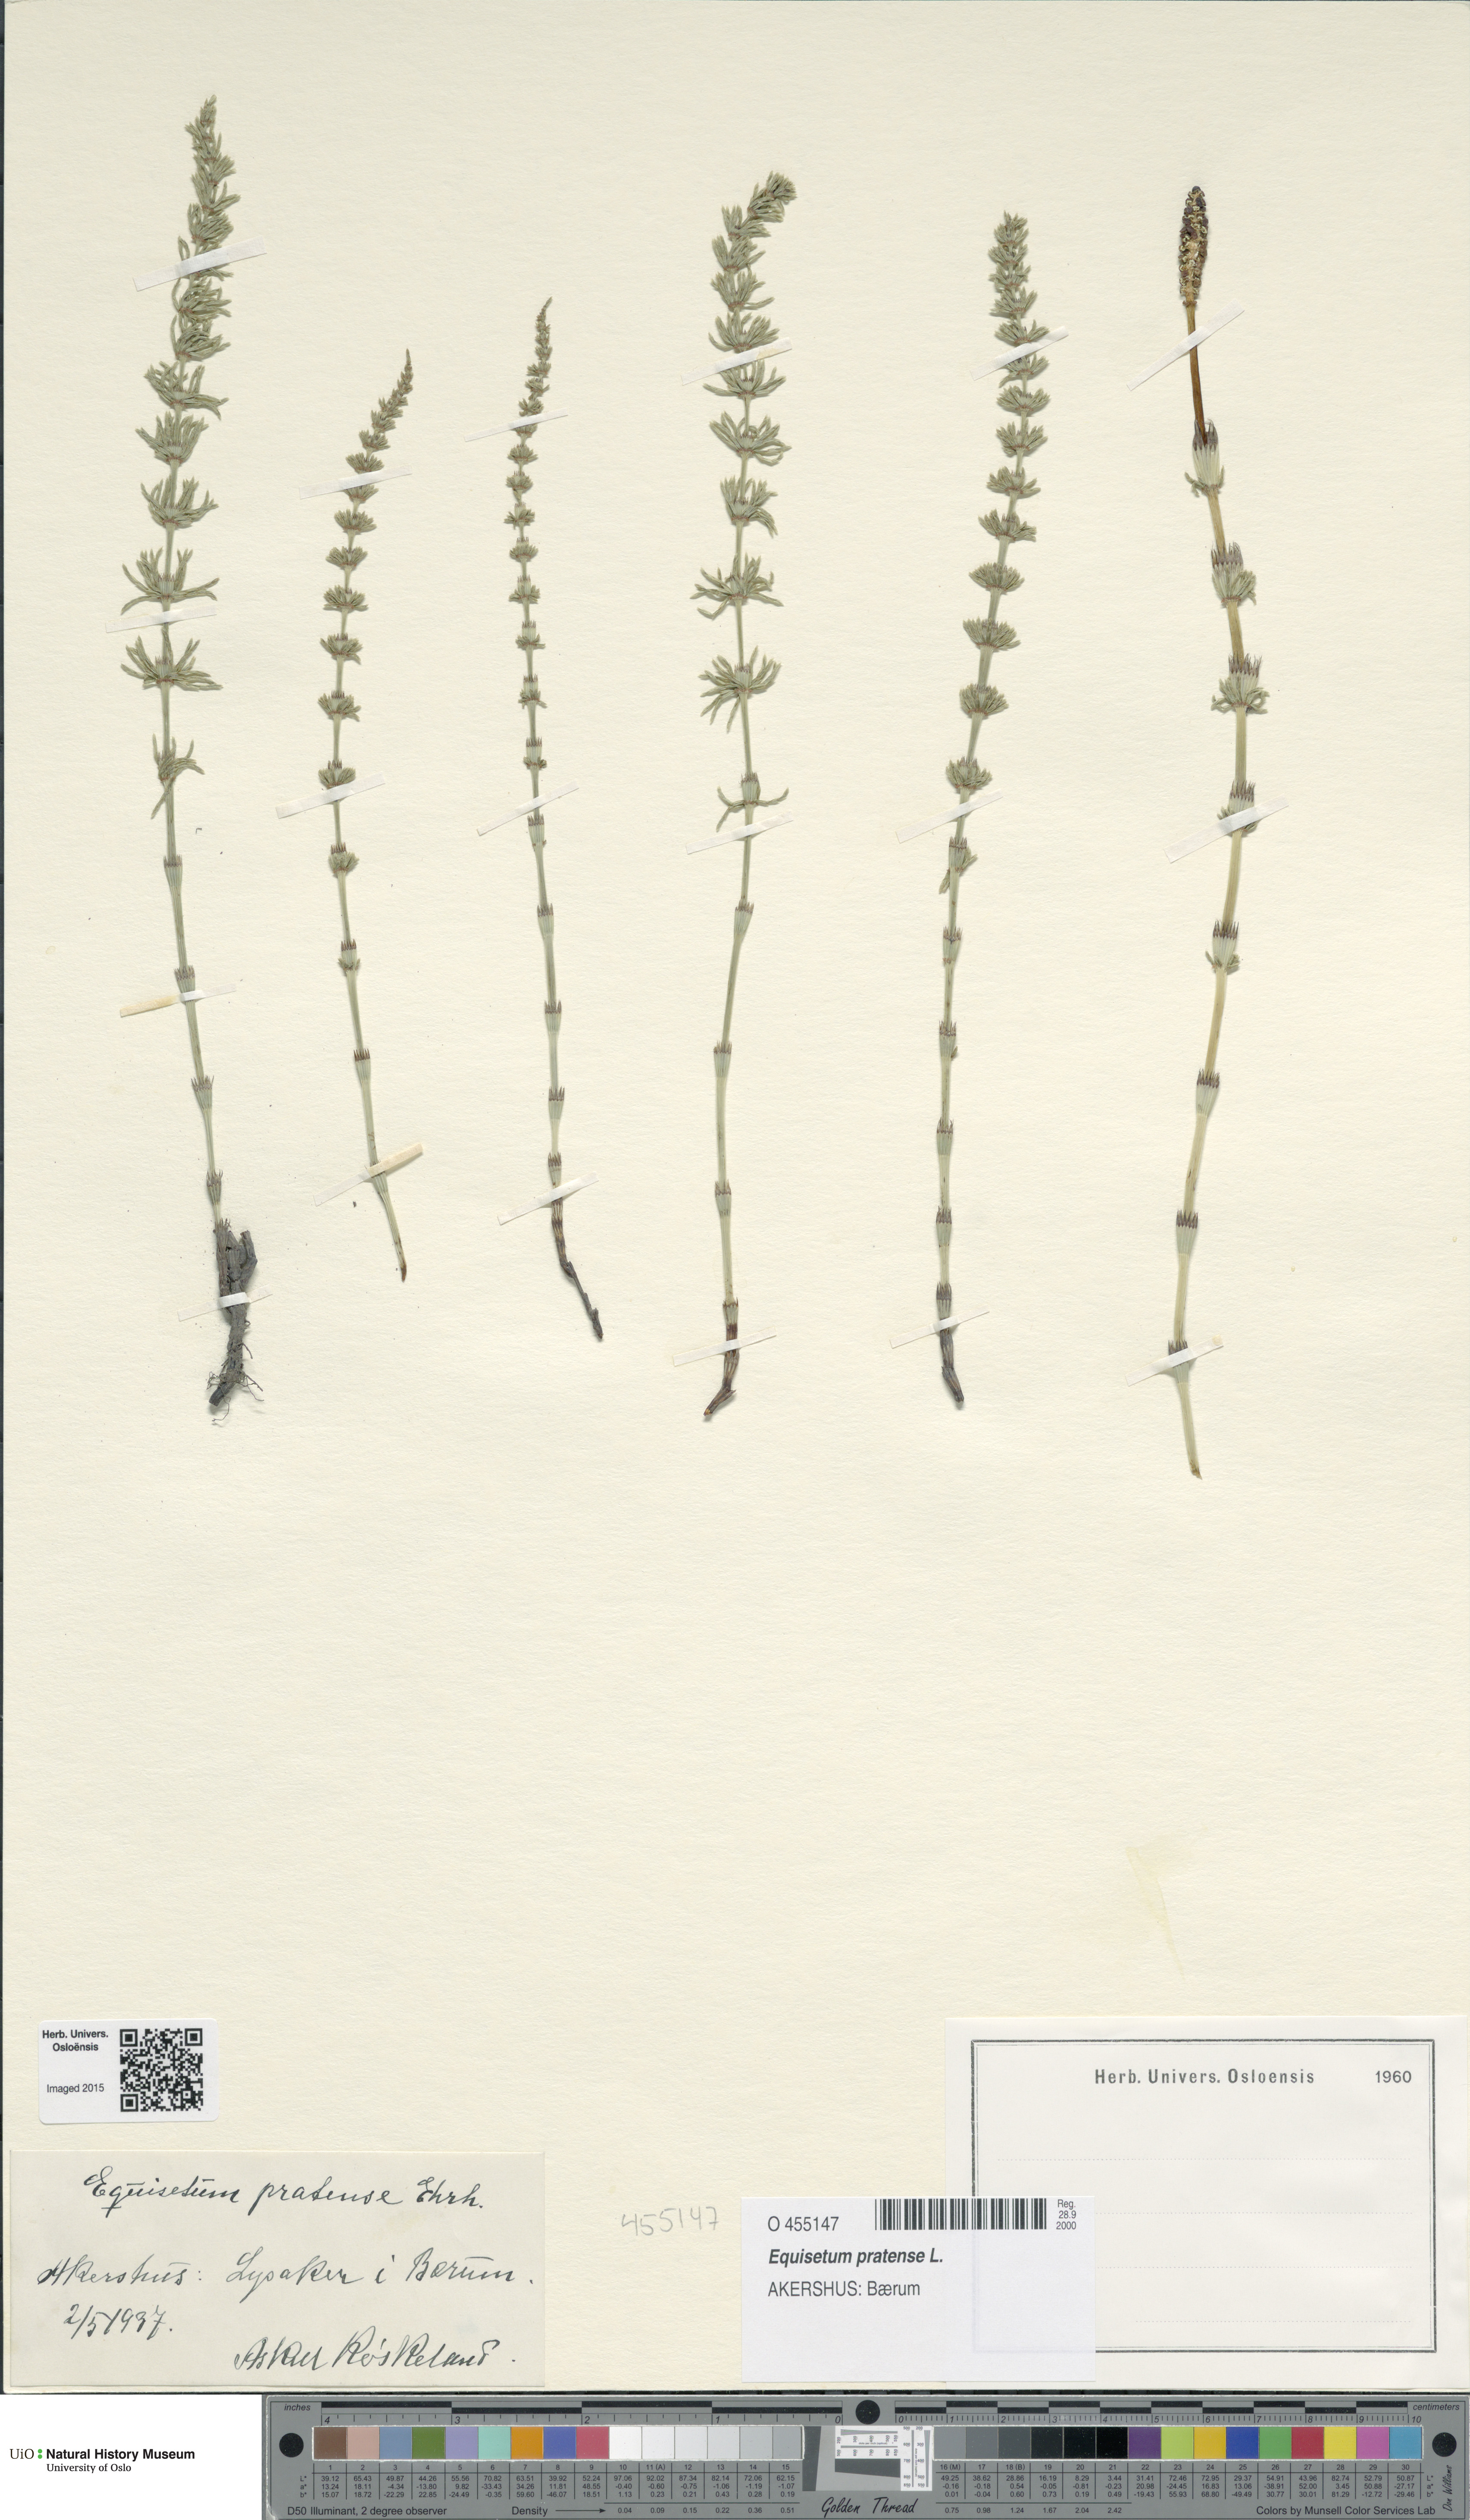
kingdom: Plantae
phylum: Tracheophyta
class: Polypodiopsida
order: Equisetales
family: Equisetaceae
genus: Equisetum
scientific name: Equisetum pratense
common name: Meadow horsetail
